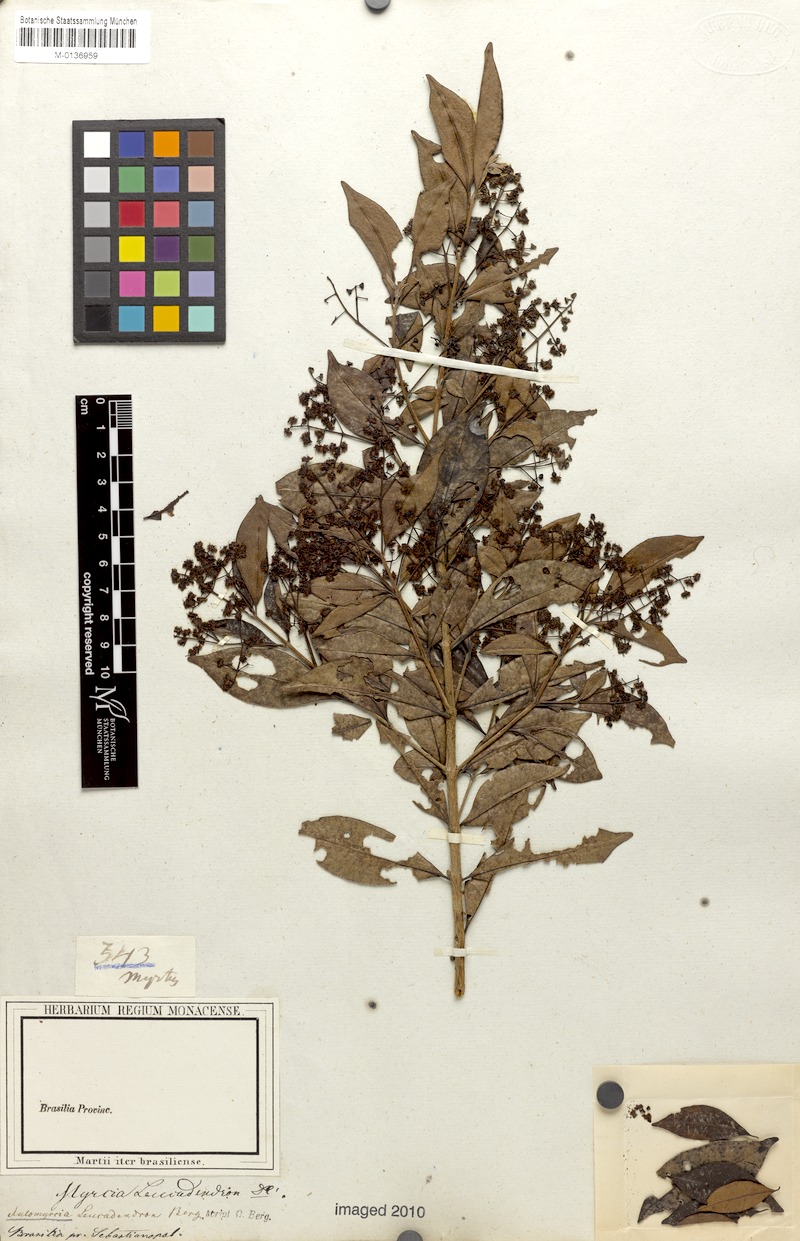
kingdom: Plantae
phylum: Tracheophyta
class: Magnoliopsida
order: Myrtales
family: Myrtaceae
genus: Myrcia
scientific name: Myrcia leucadendron
